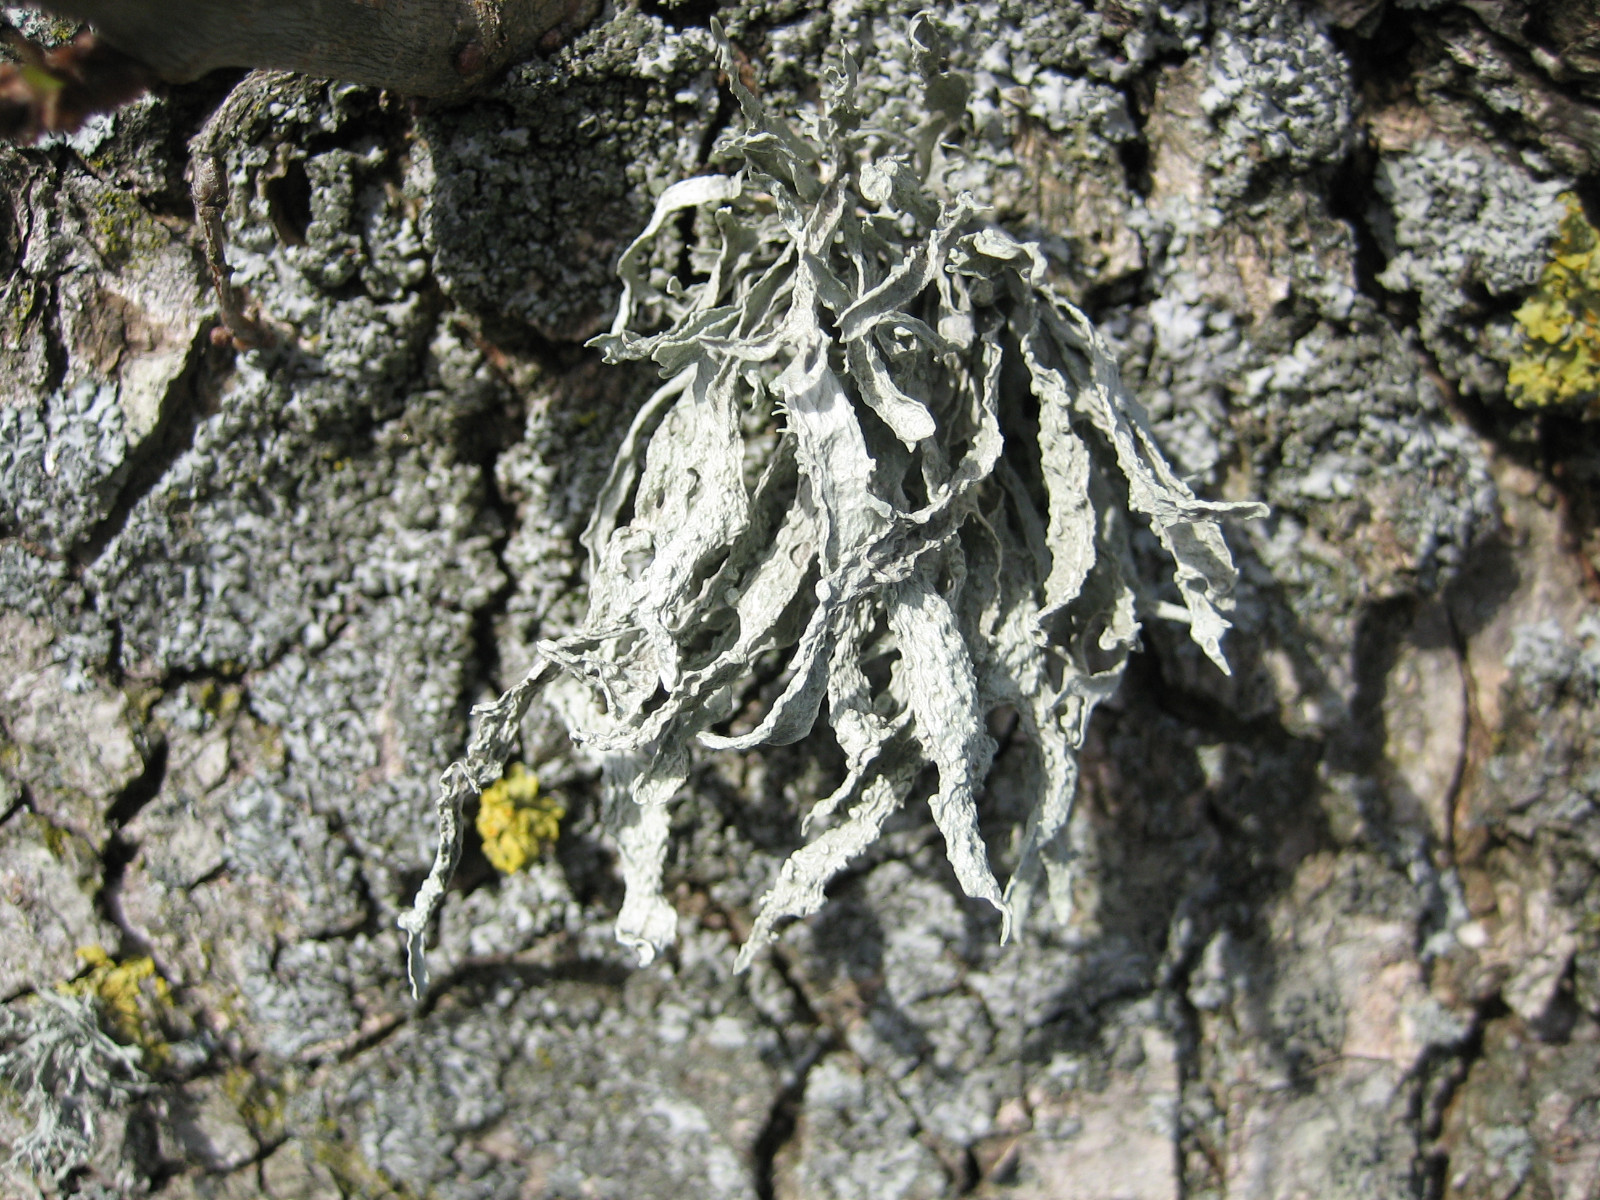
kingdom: Fungi
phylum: Ascomycota
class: Lecanoromycetes
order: Lecanorales
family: Ramalinaceae
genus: Ramalina
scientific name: Ramalina fraxinea
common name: stor grenlav
